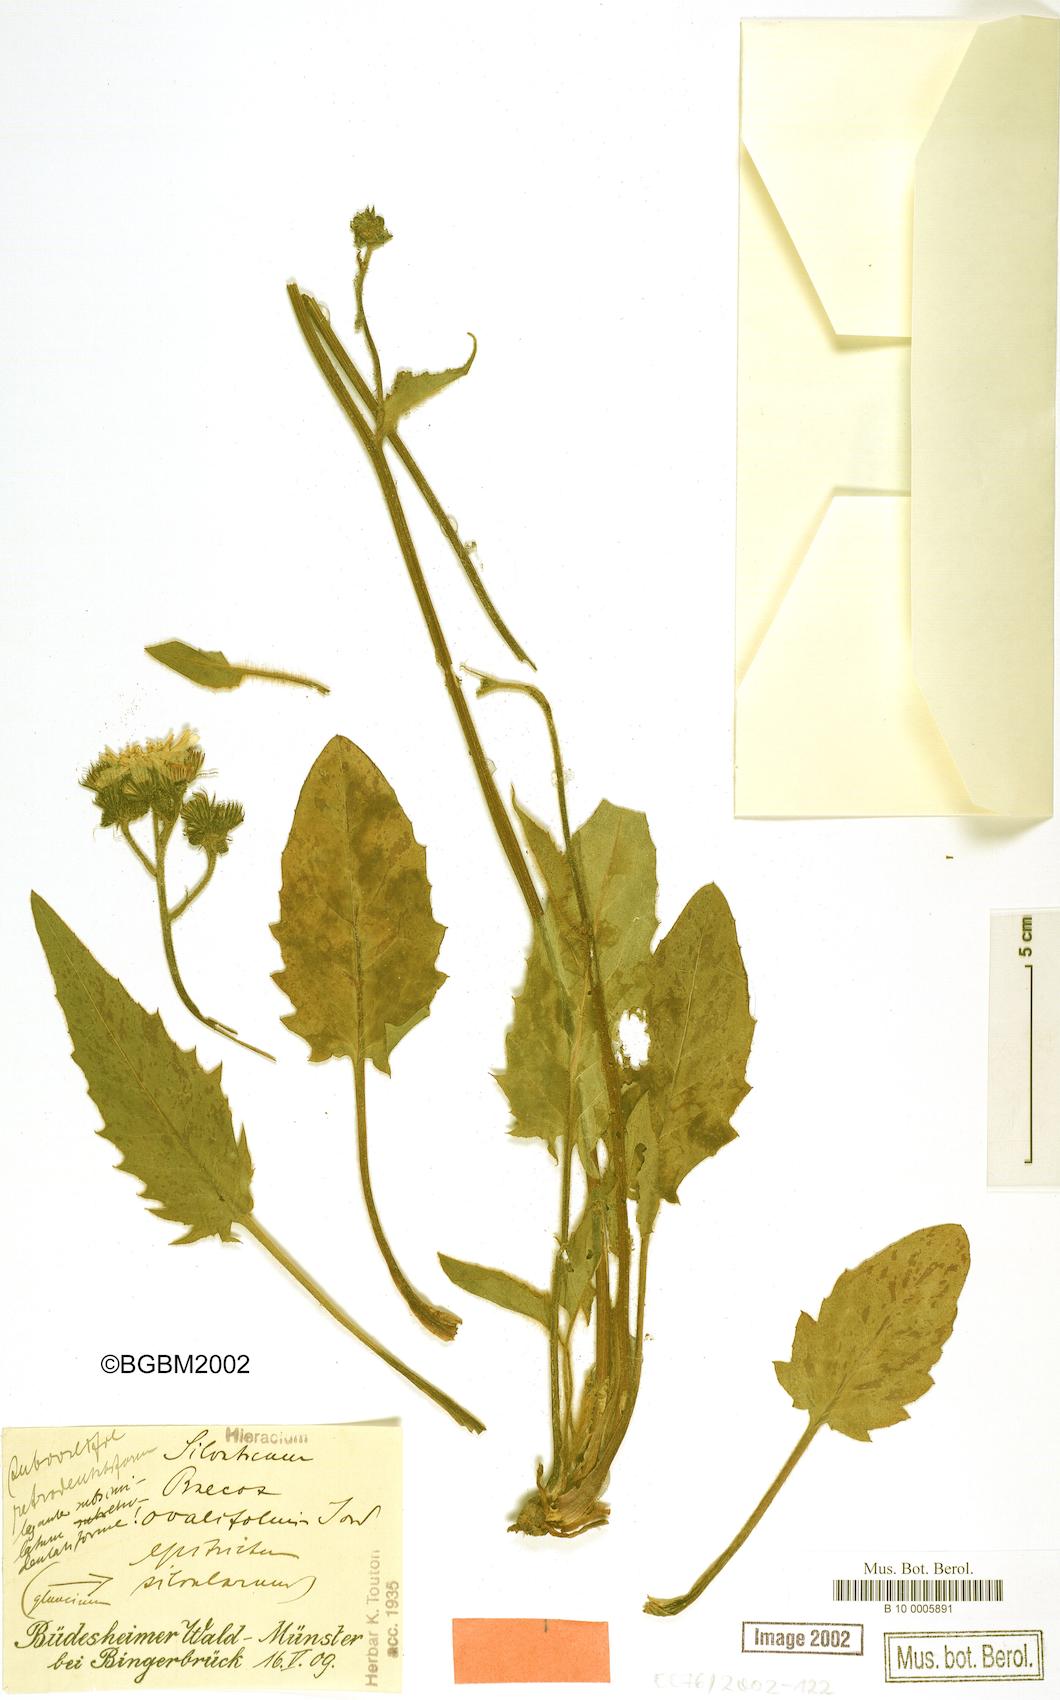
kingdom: Plantae
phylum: Tracheophyta
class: Magnoliopsida
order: Asterales
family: Asteraceae
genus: Hieracium
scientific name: Hieracium praecox
